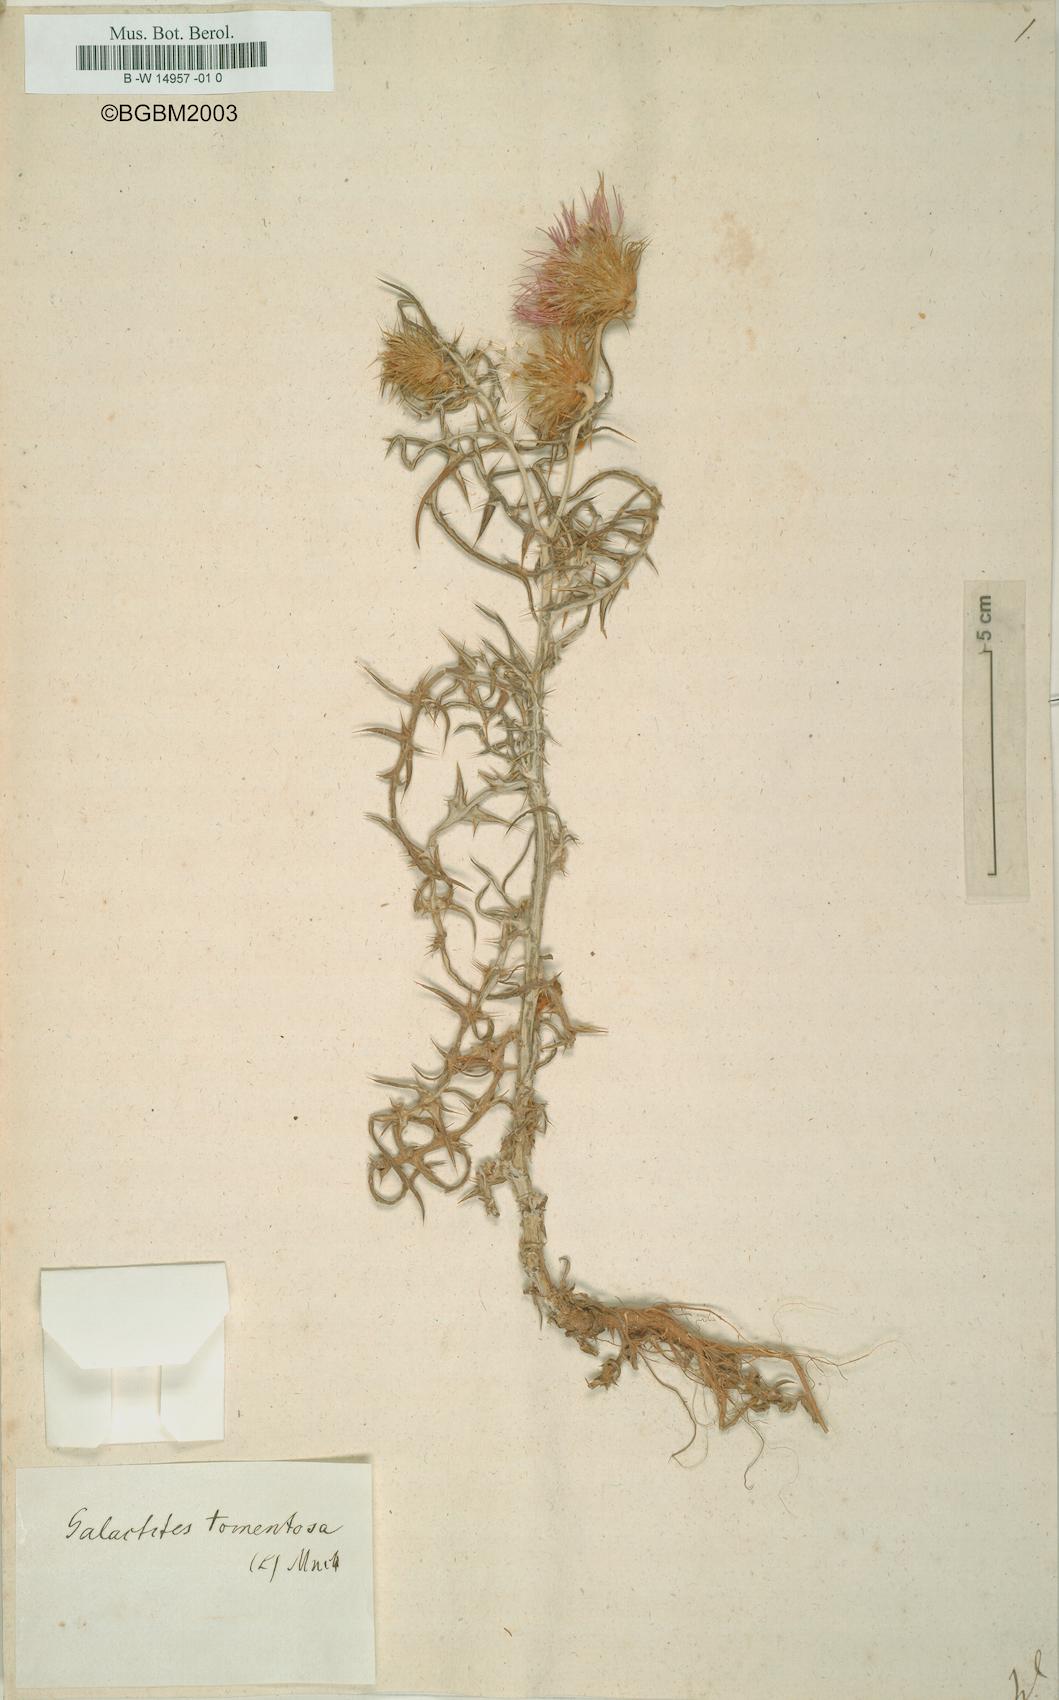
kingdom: Plantae
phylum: Tracheophyta
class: Magnoliopsida
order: Asterales
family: Asteraceae
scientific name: Asteraceae
